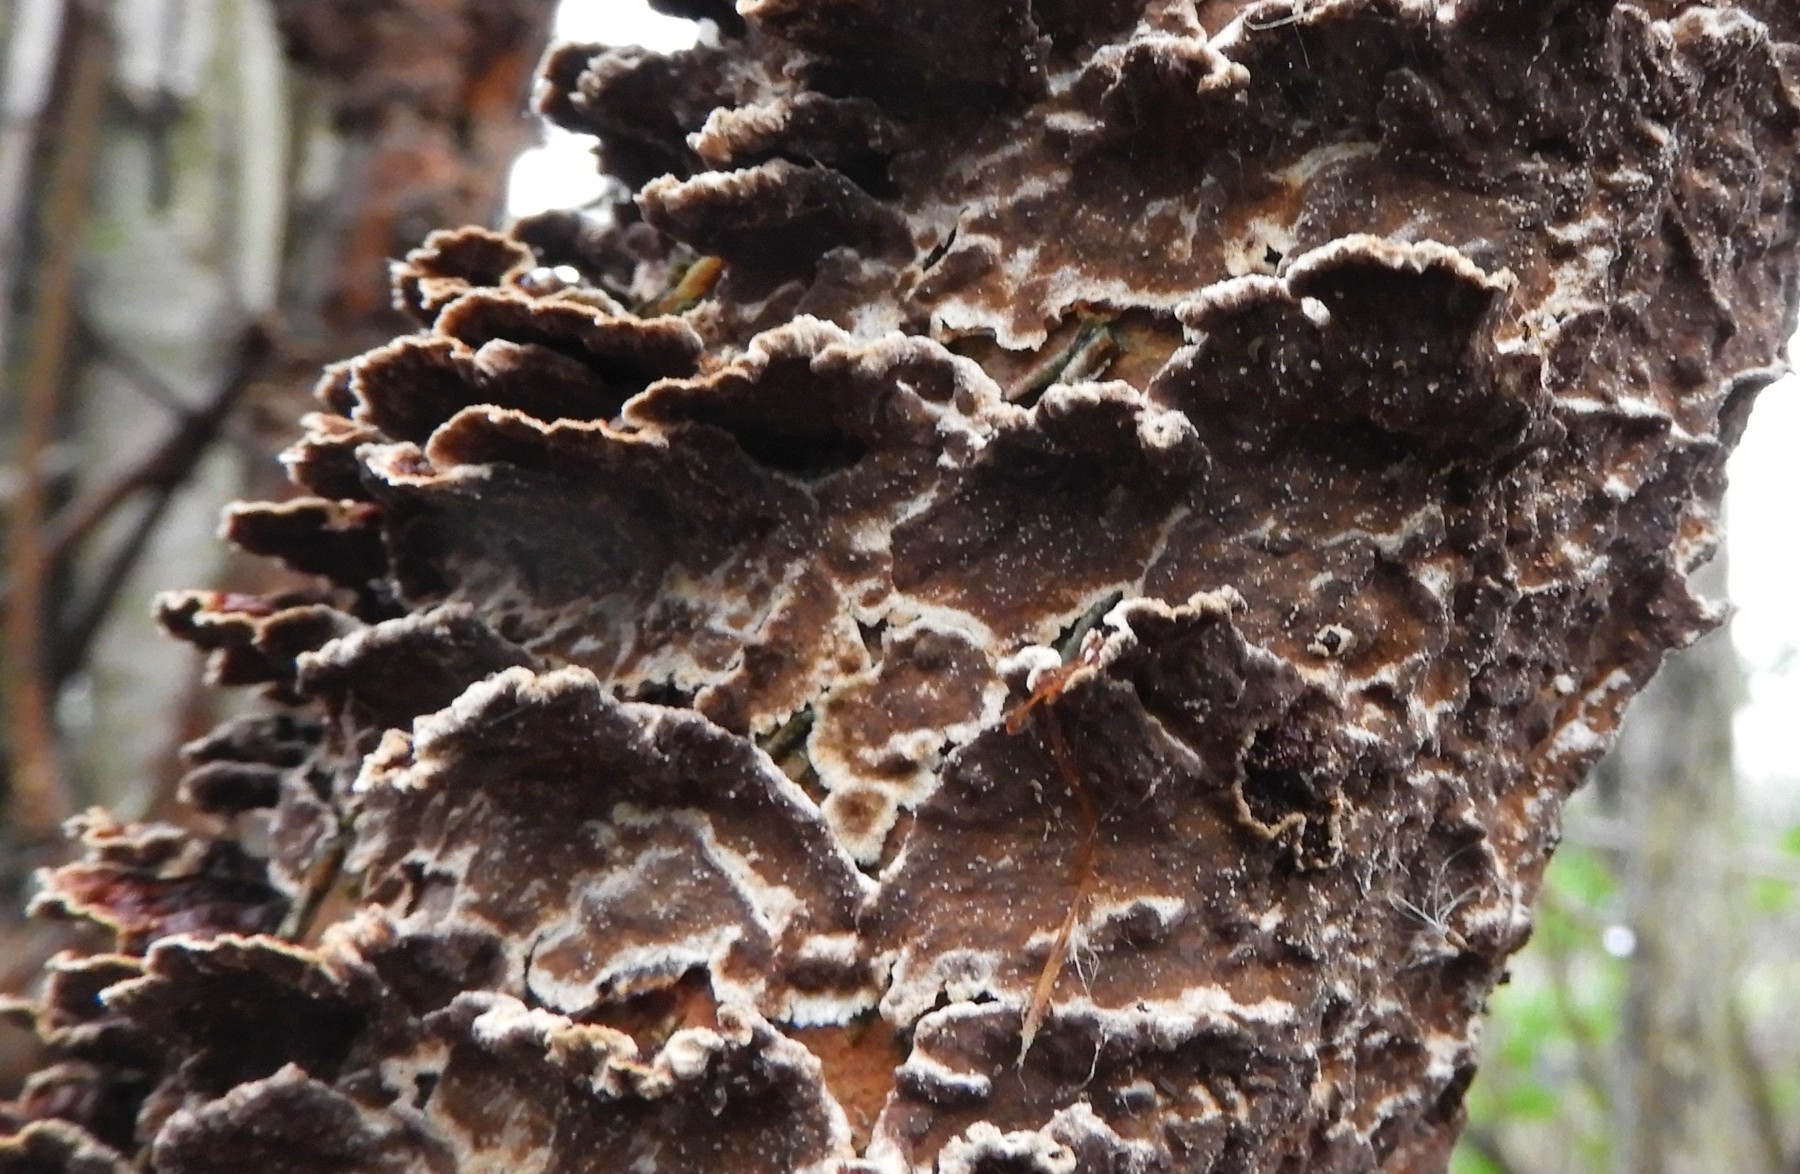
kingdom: Fungi
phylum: Basidiomycota
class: Agaricomycetes
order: Hymenochaetales
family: Hymenochaetaceae
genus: Hydnoporia
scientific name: Hydnoporia tabacina
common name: tobaksbrun ruslædersvamp
